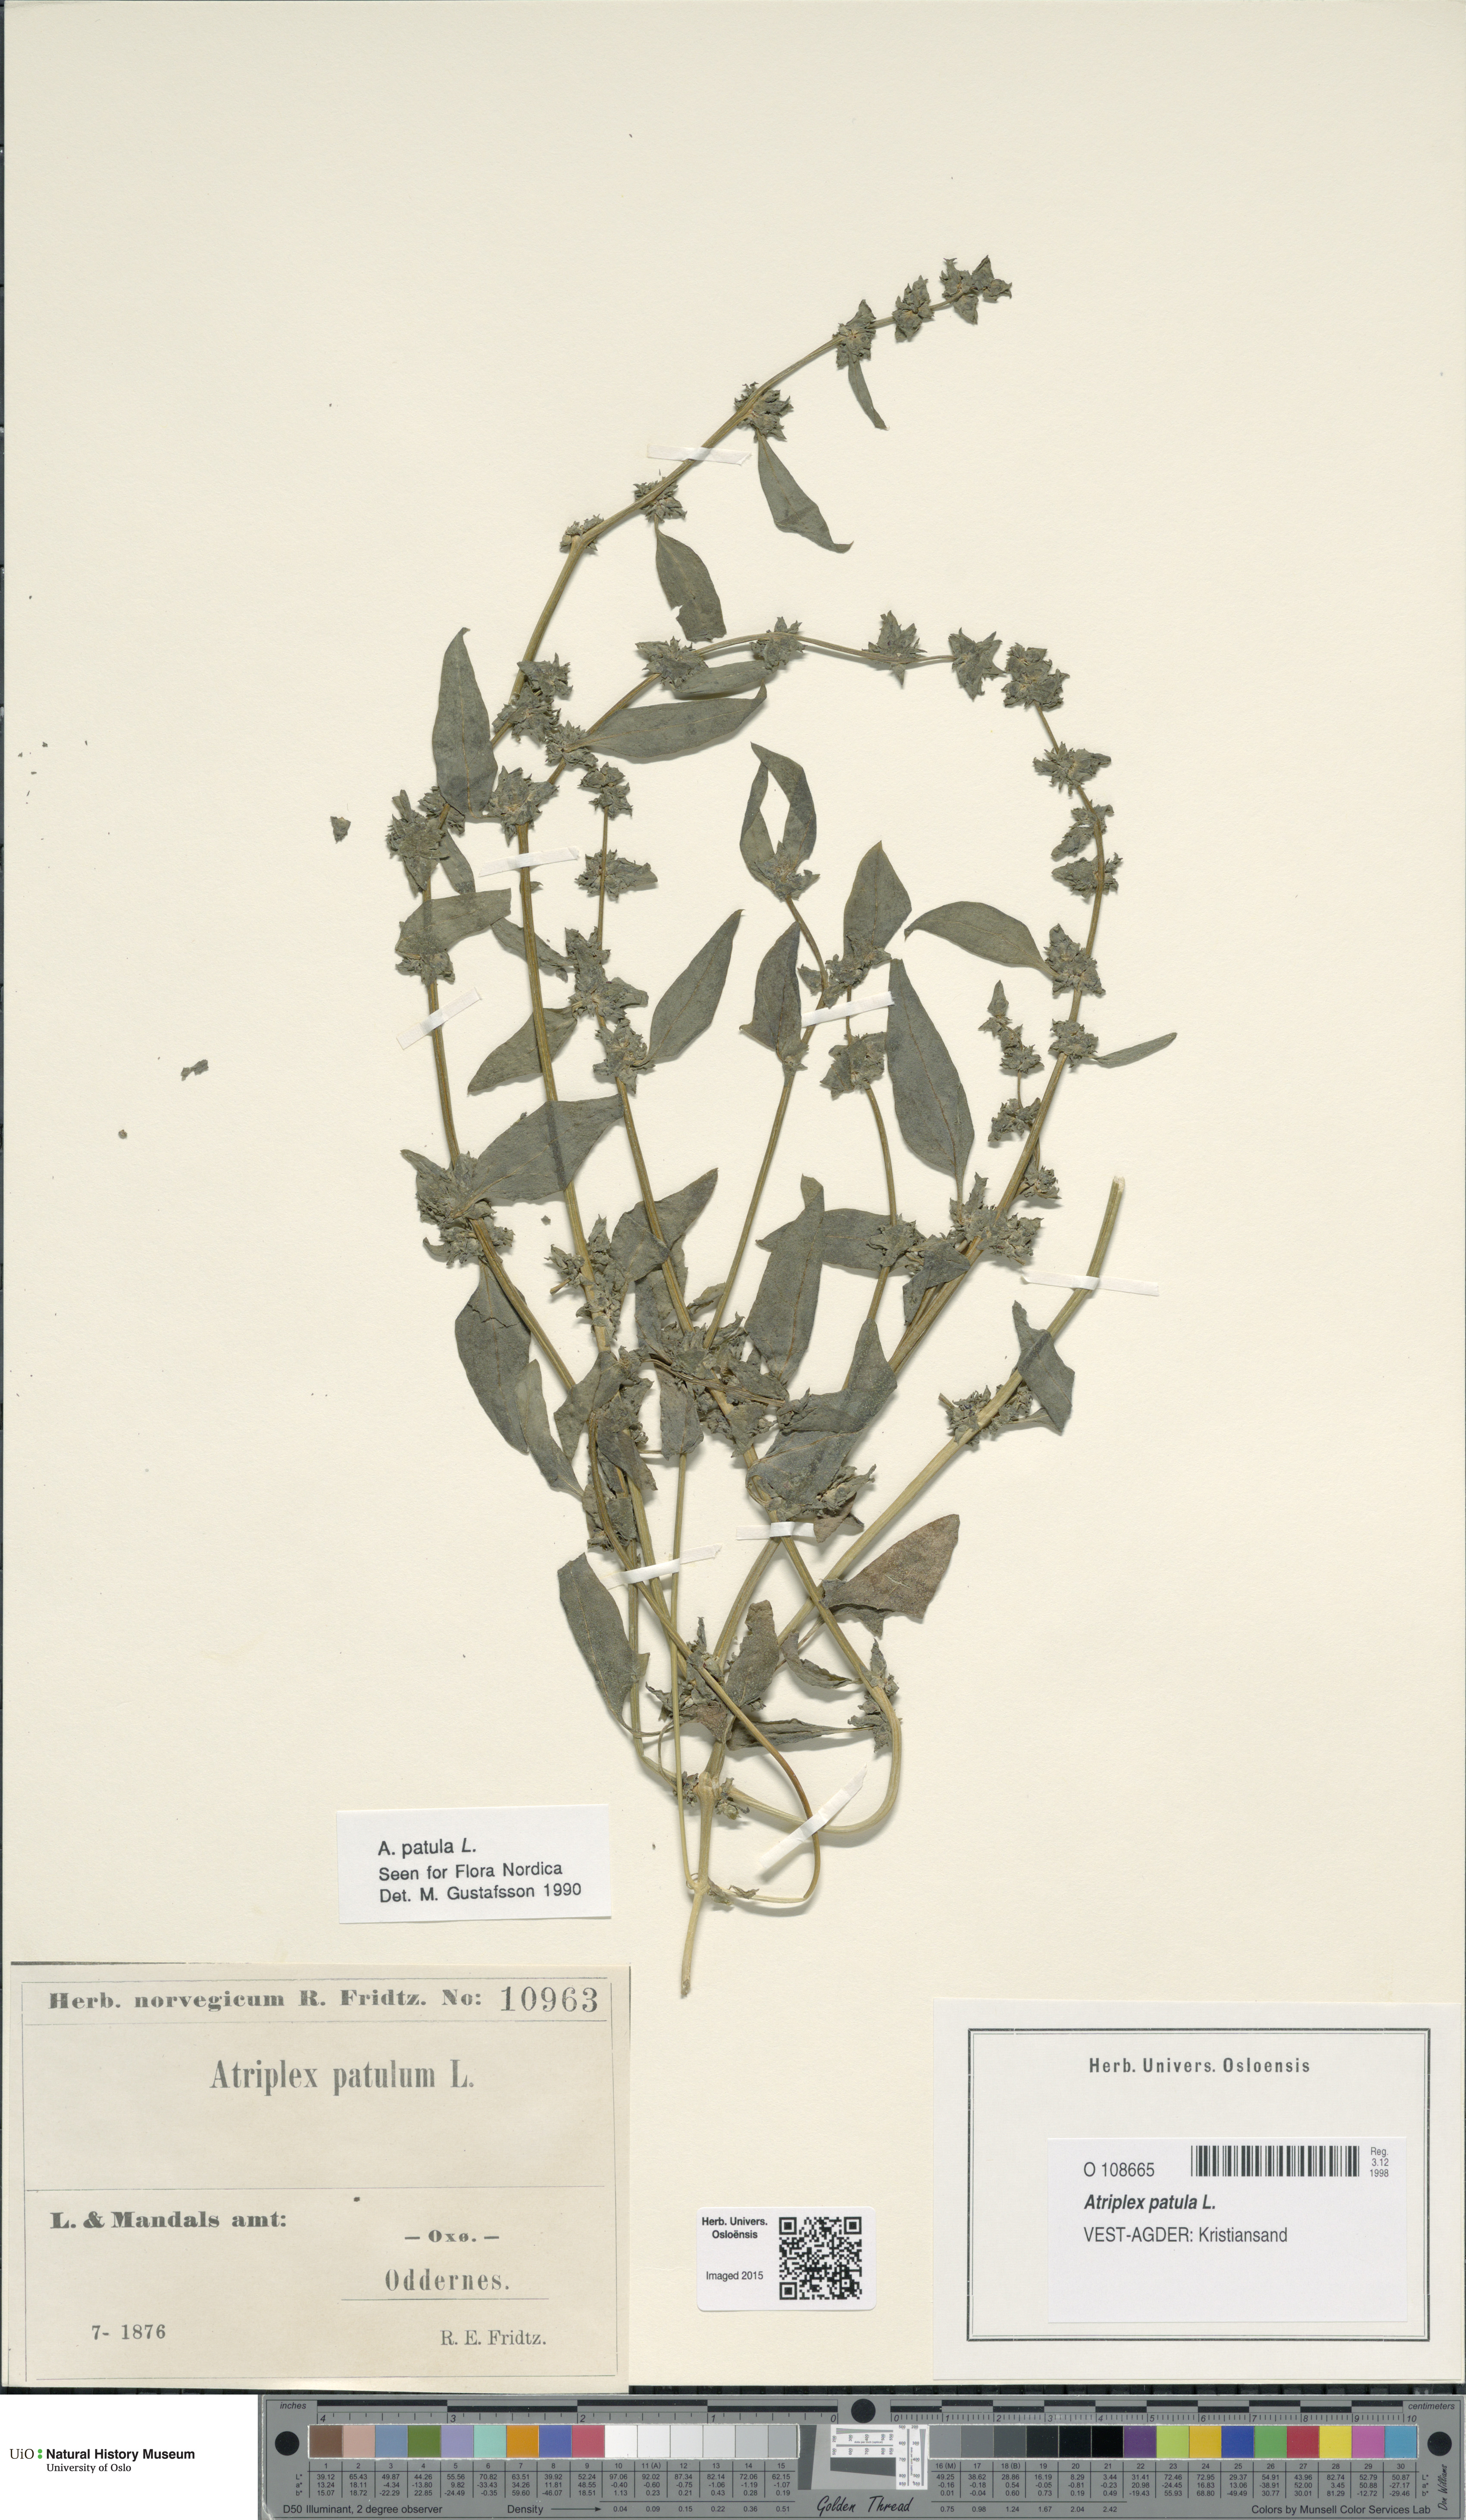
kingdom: Plantae
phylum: Tracheophyta
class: Magnoliopsida
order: Caryophyllales
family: Amaranthaceae
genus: Atriplex
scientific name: Atriplex patula
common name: Common orache
